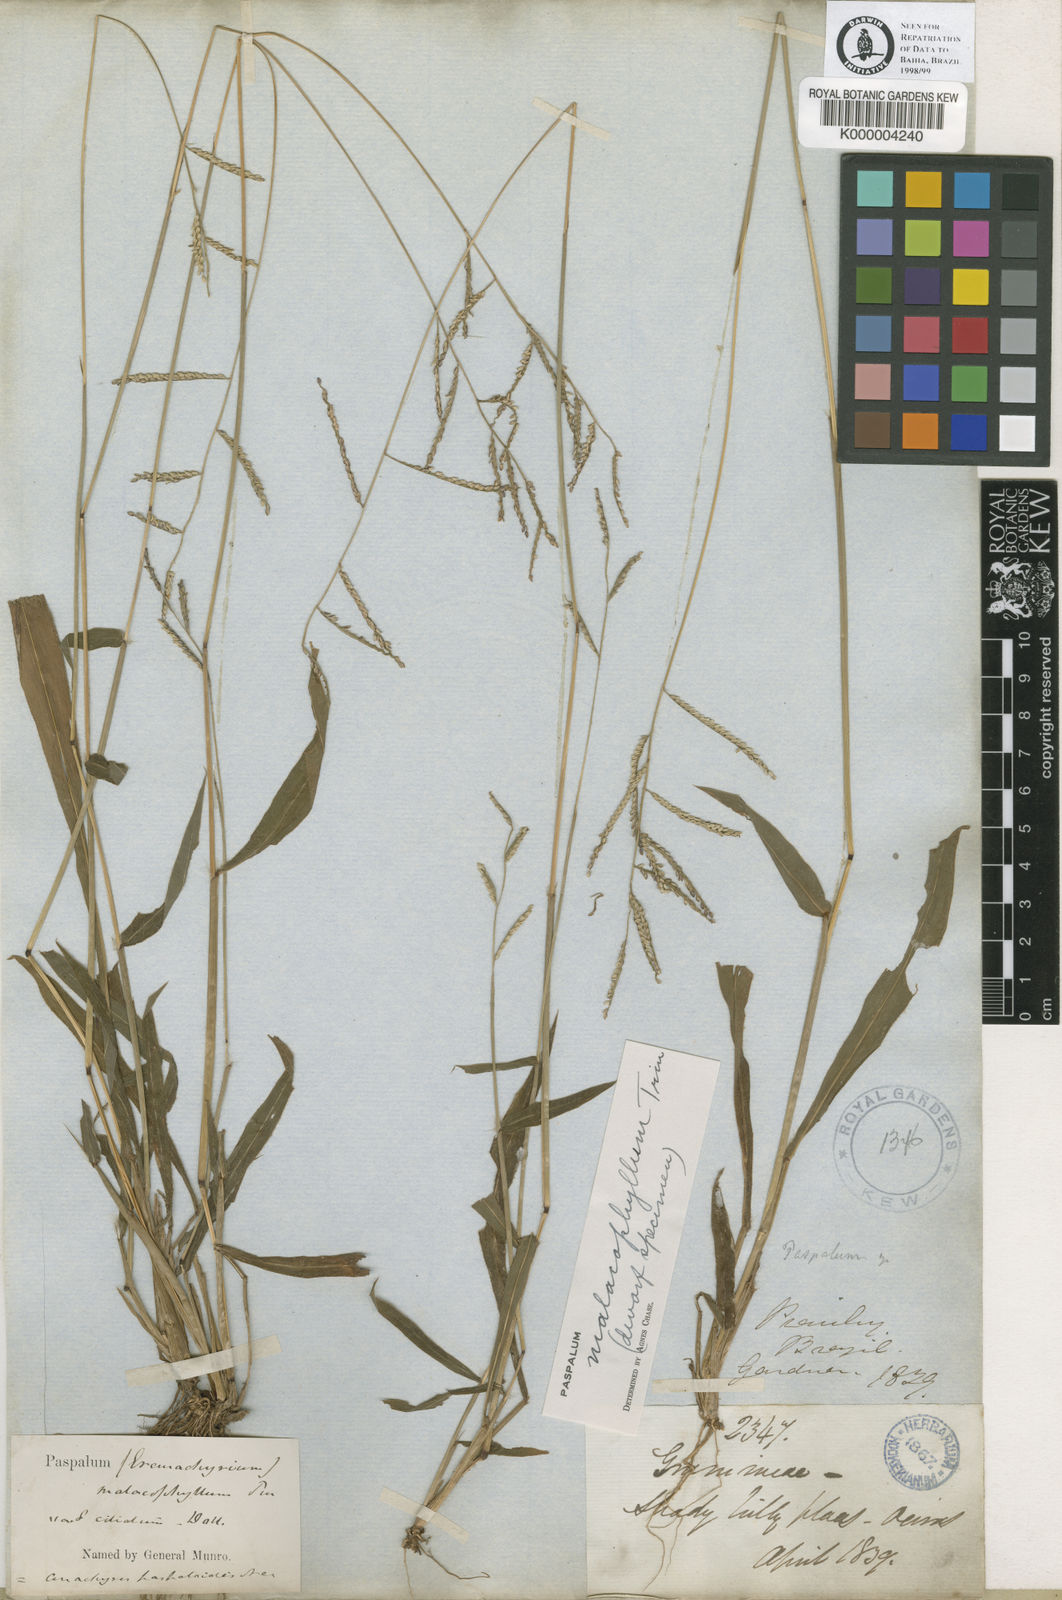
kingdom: Plantae
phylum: Tracheophyta
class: Liliopsida
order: Poales
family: Poaceae
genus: Paspalum
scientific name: Paspalum malacophyllum
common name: Ribbed paspalum
